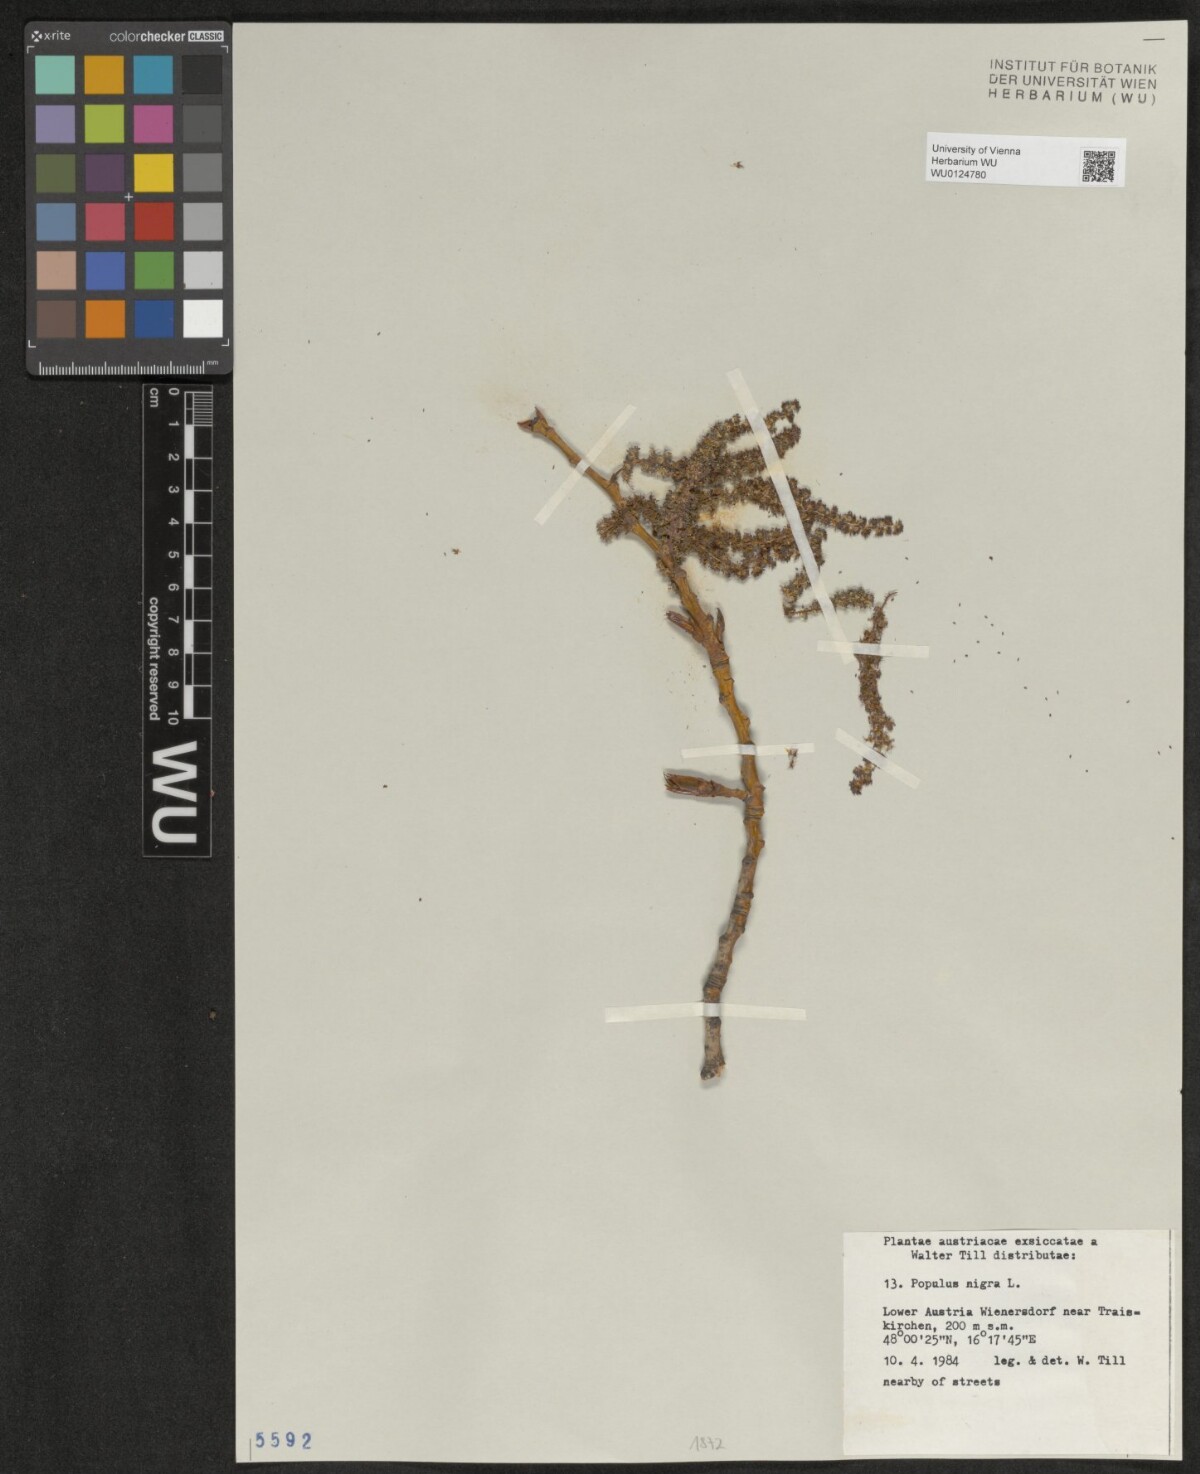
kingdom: Plantae
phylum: Tracheophyta
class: Magnoliopsida
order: Malpighiales
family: Salicaceae
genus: Populus
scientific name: Populus nigra
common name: Black poplar
